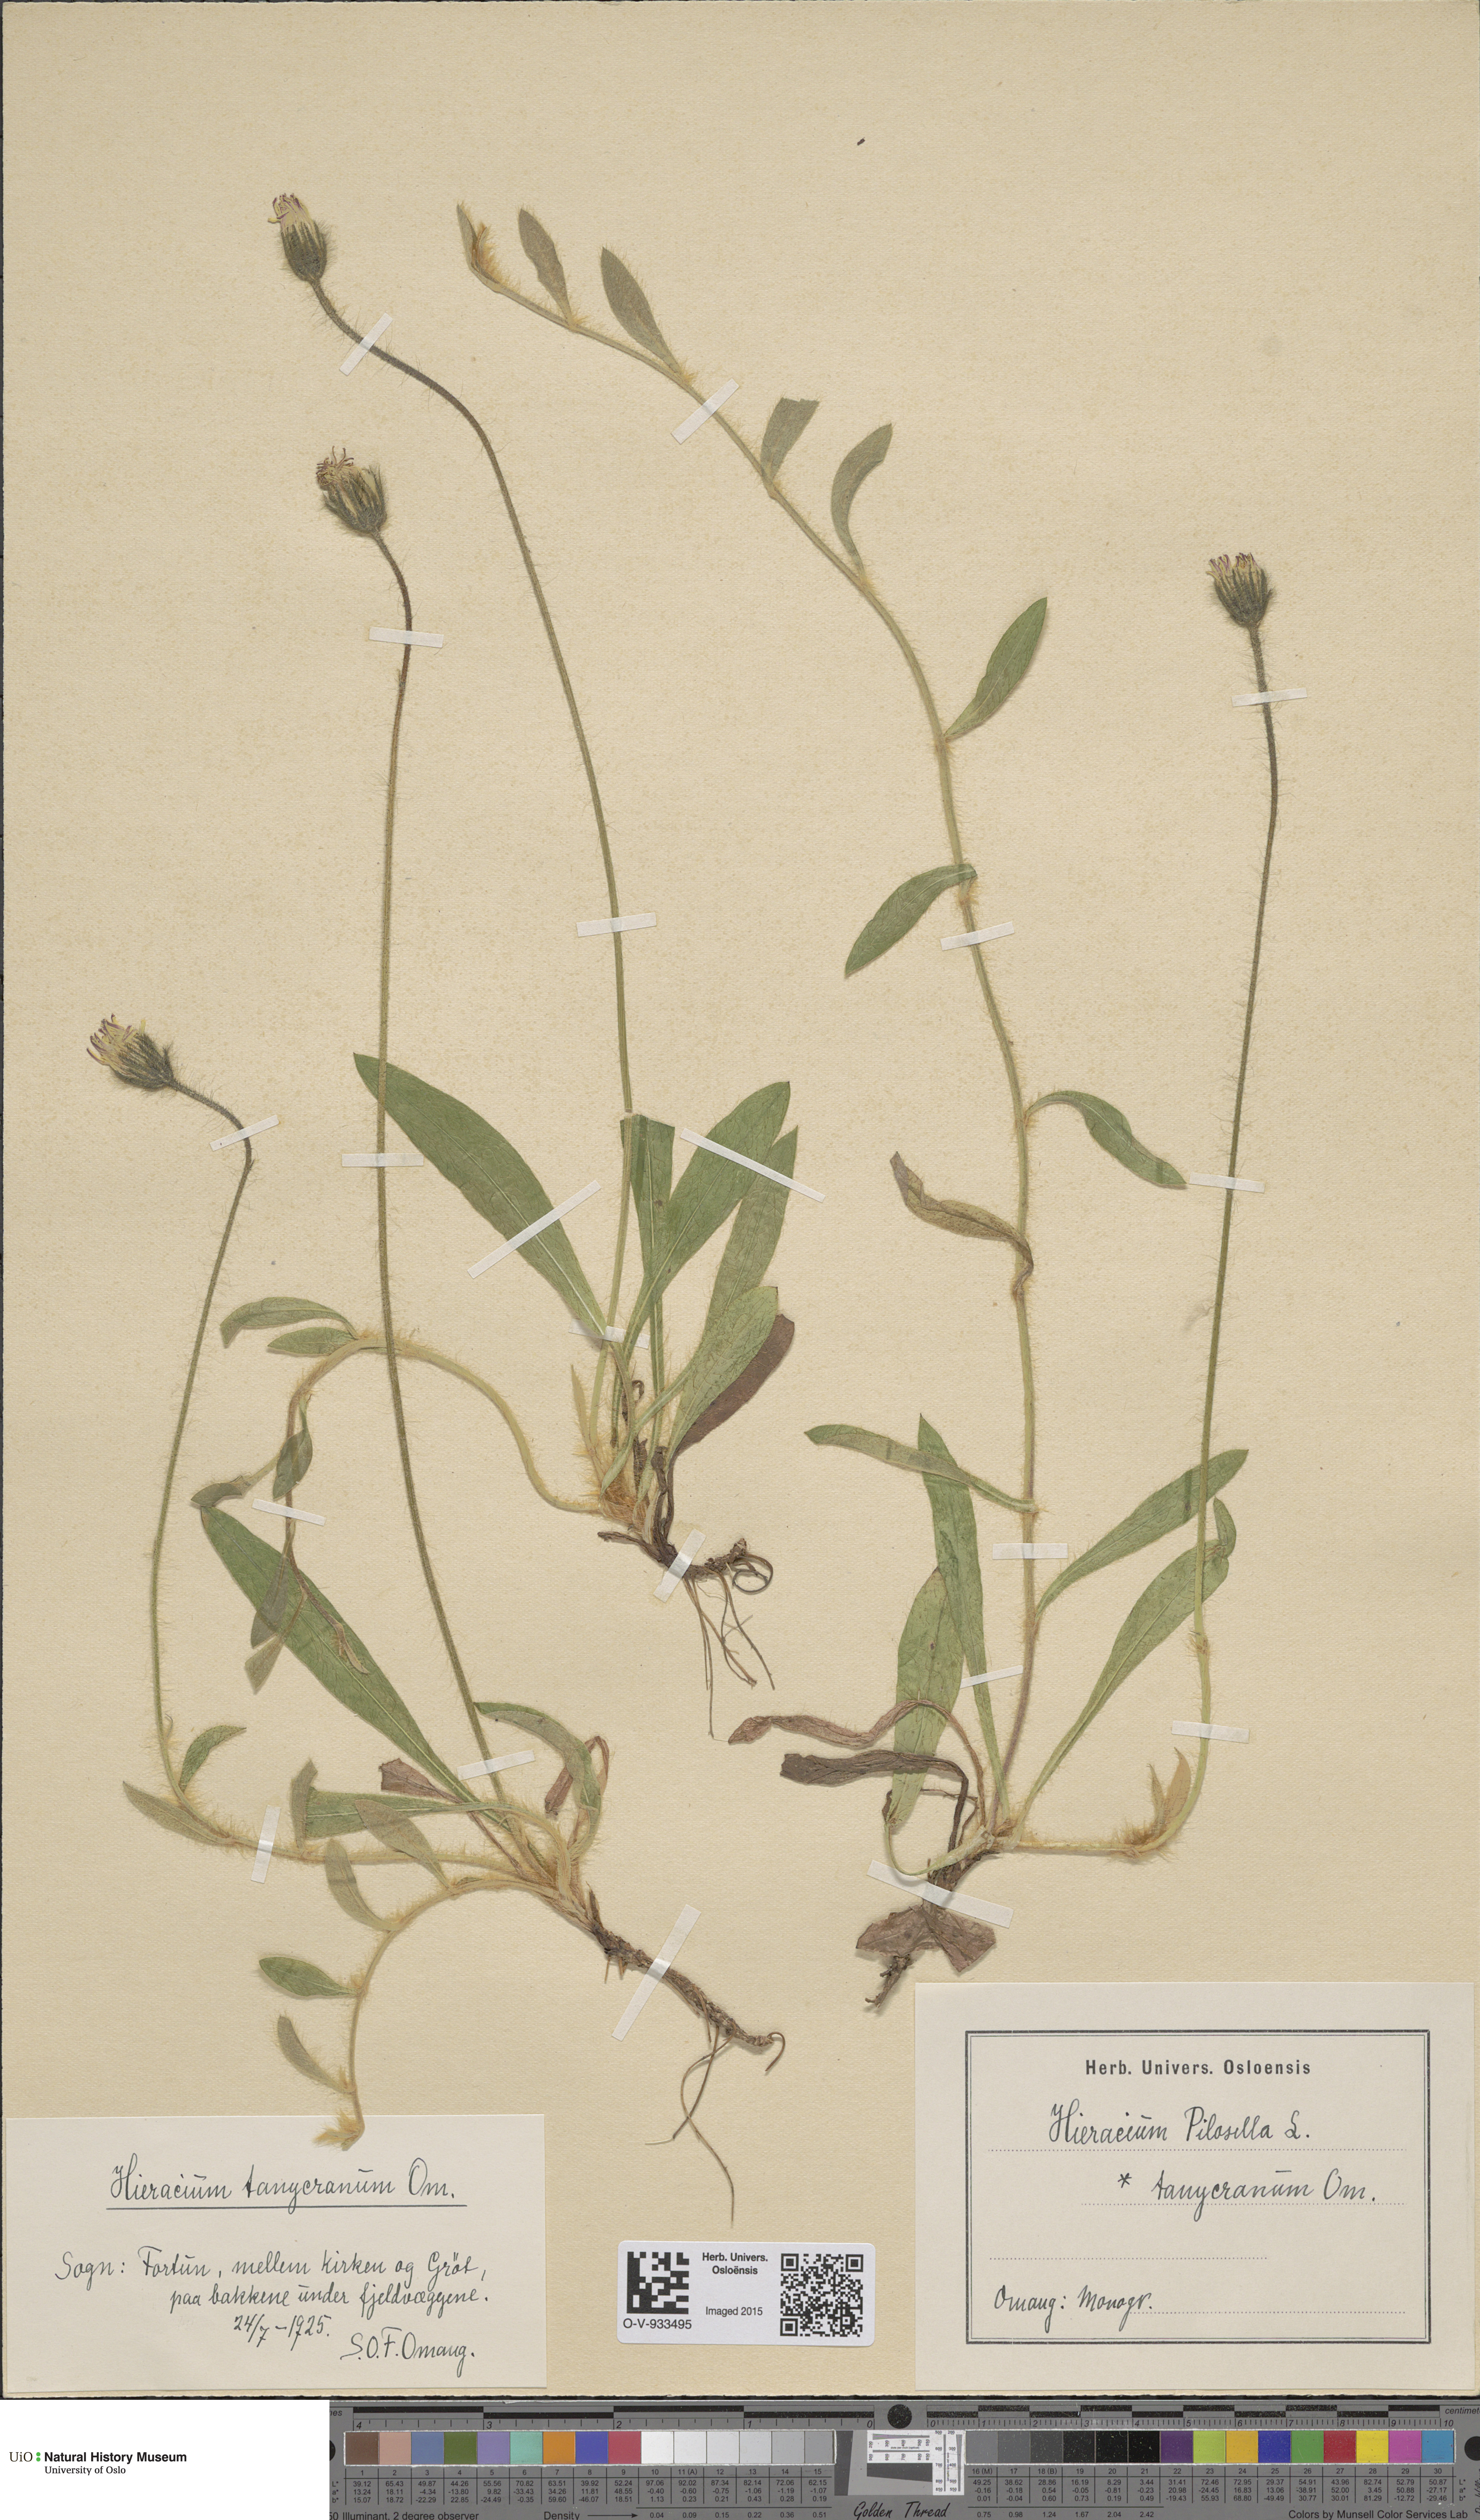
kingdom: Plantae
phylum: Tracheophyta
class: Magnoliopsida
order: Asterales
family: Asteraceae
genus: Pilosella
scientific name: Pilosella officinarum
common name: Mouse-ear hawkweed
